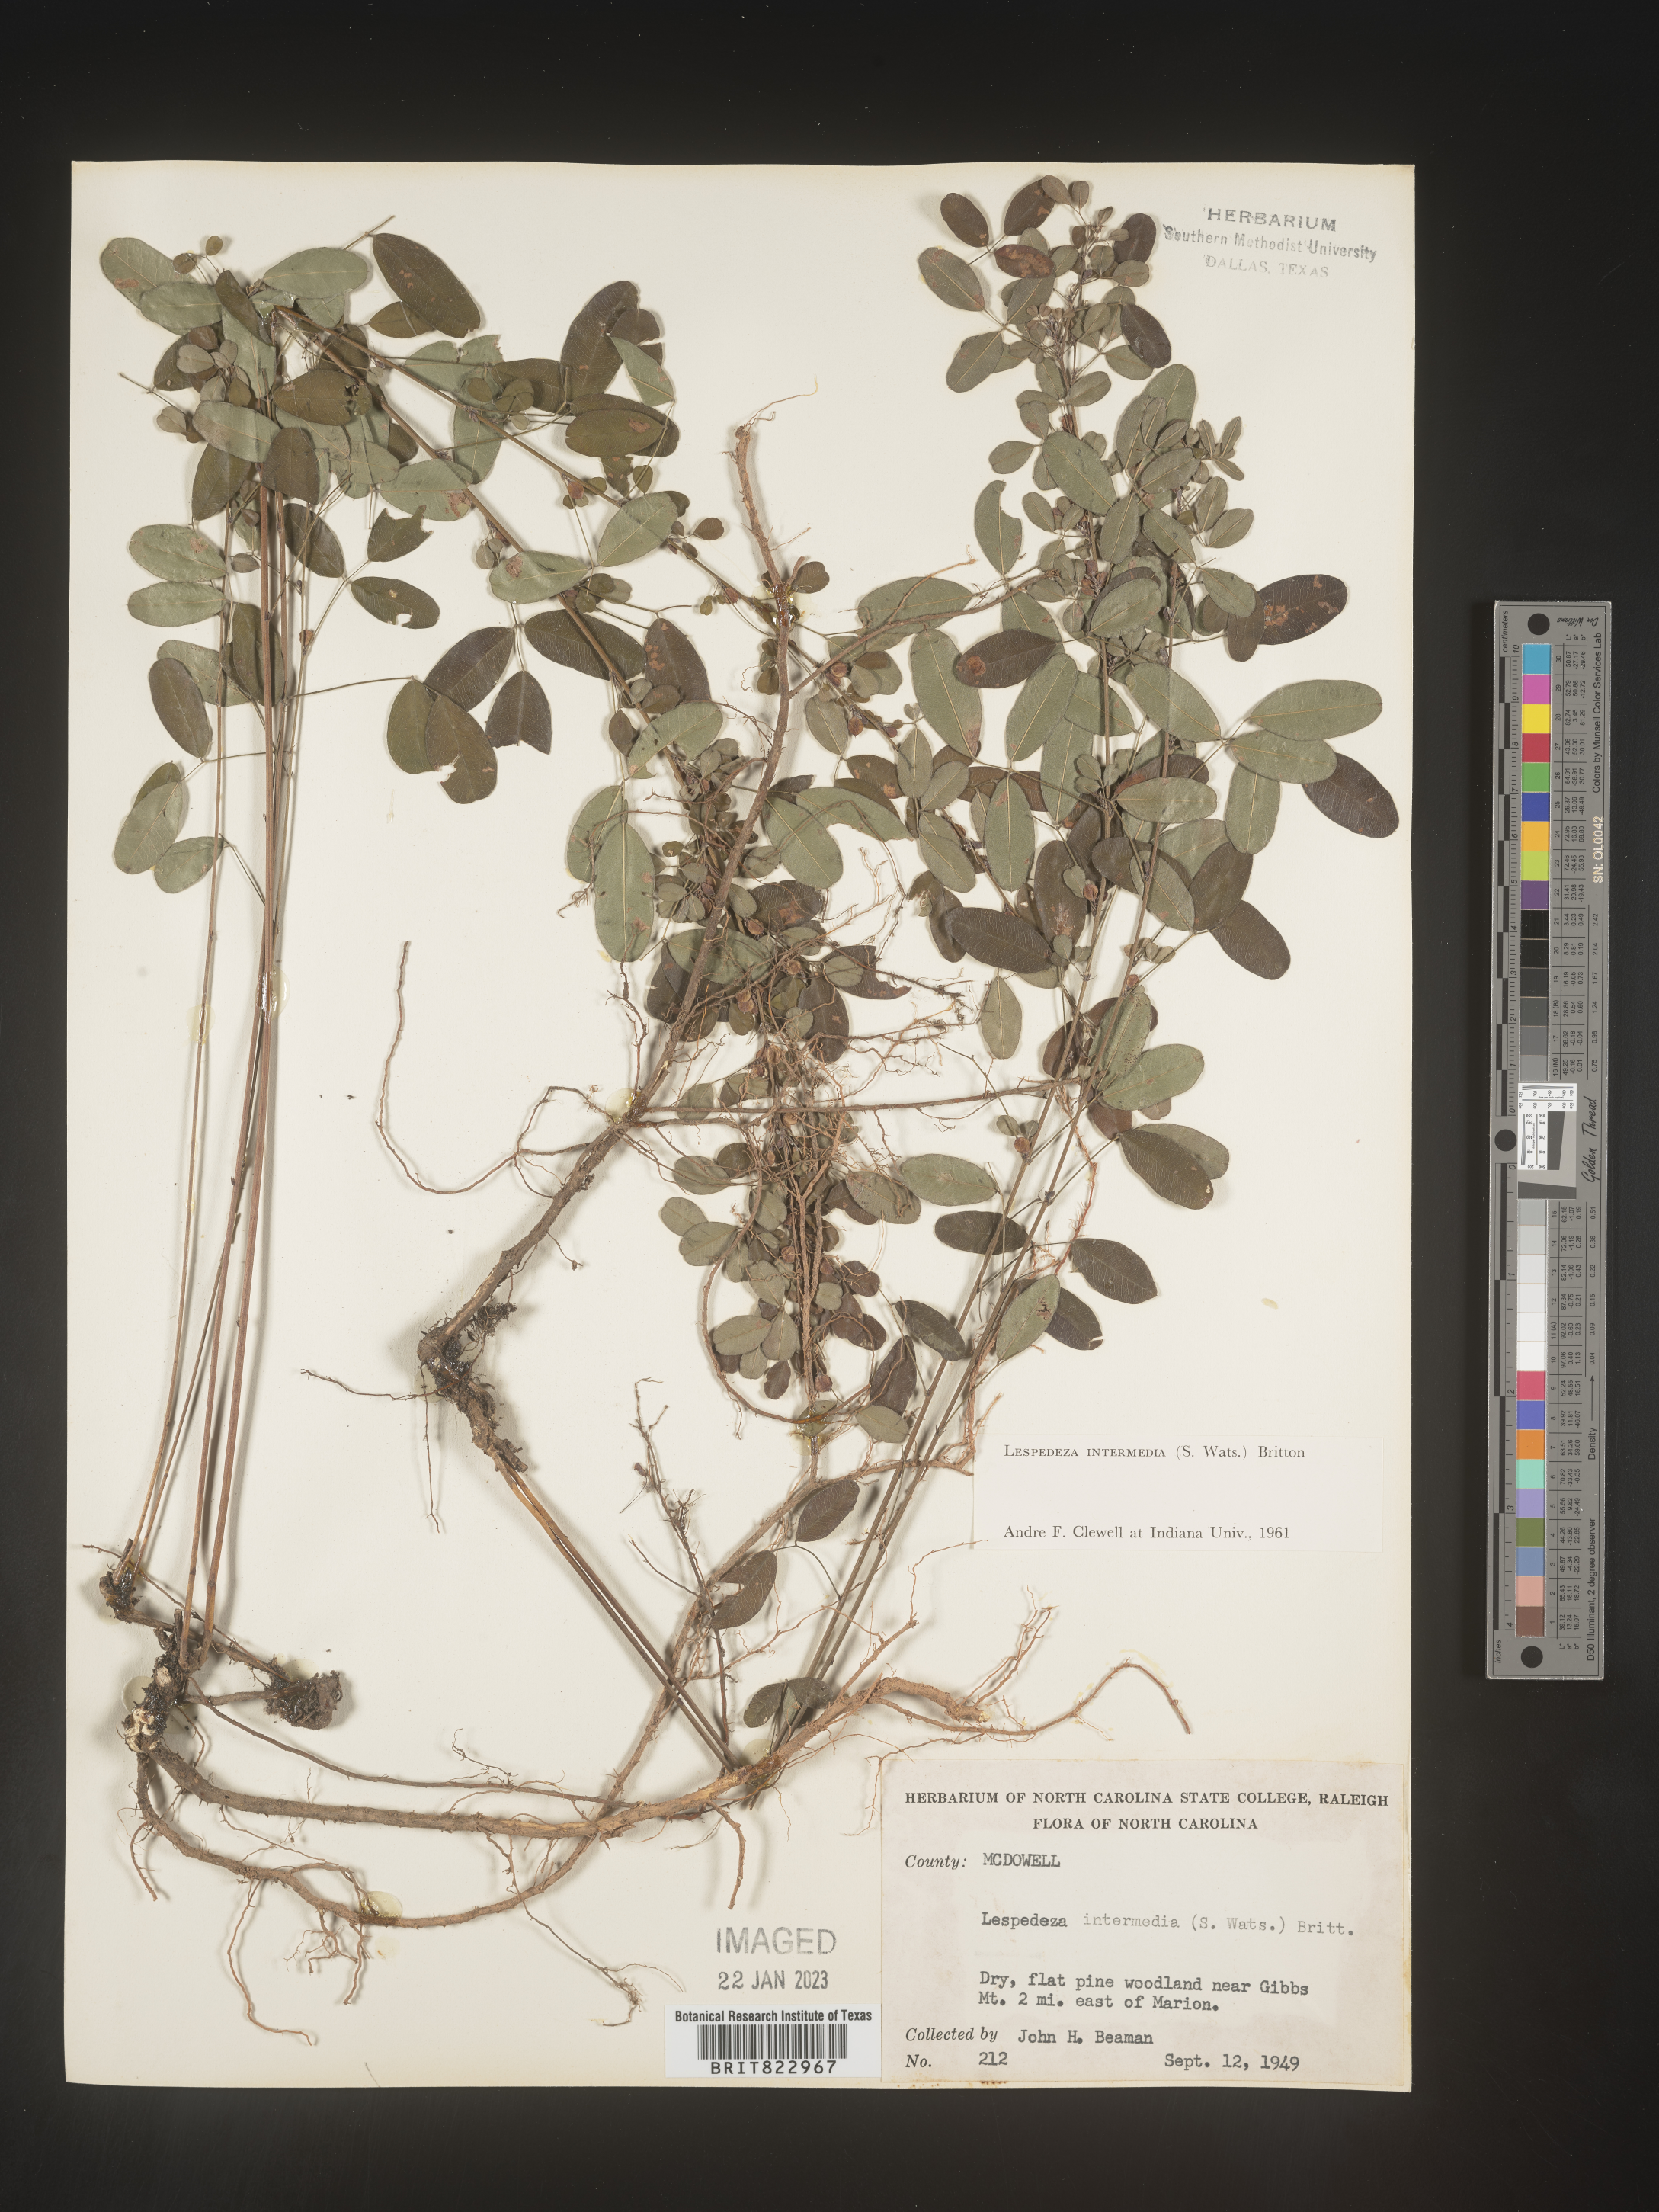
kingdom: Plantae
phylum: Tracheophyta
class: Magnoliopsida
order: Fabales
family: Fabaceae
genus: Lespedeza
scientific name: Lespedeza
